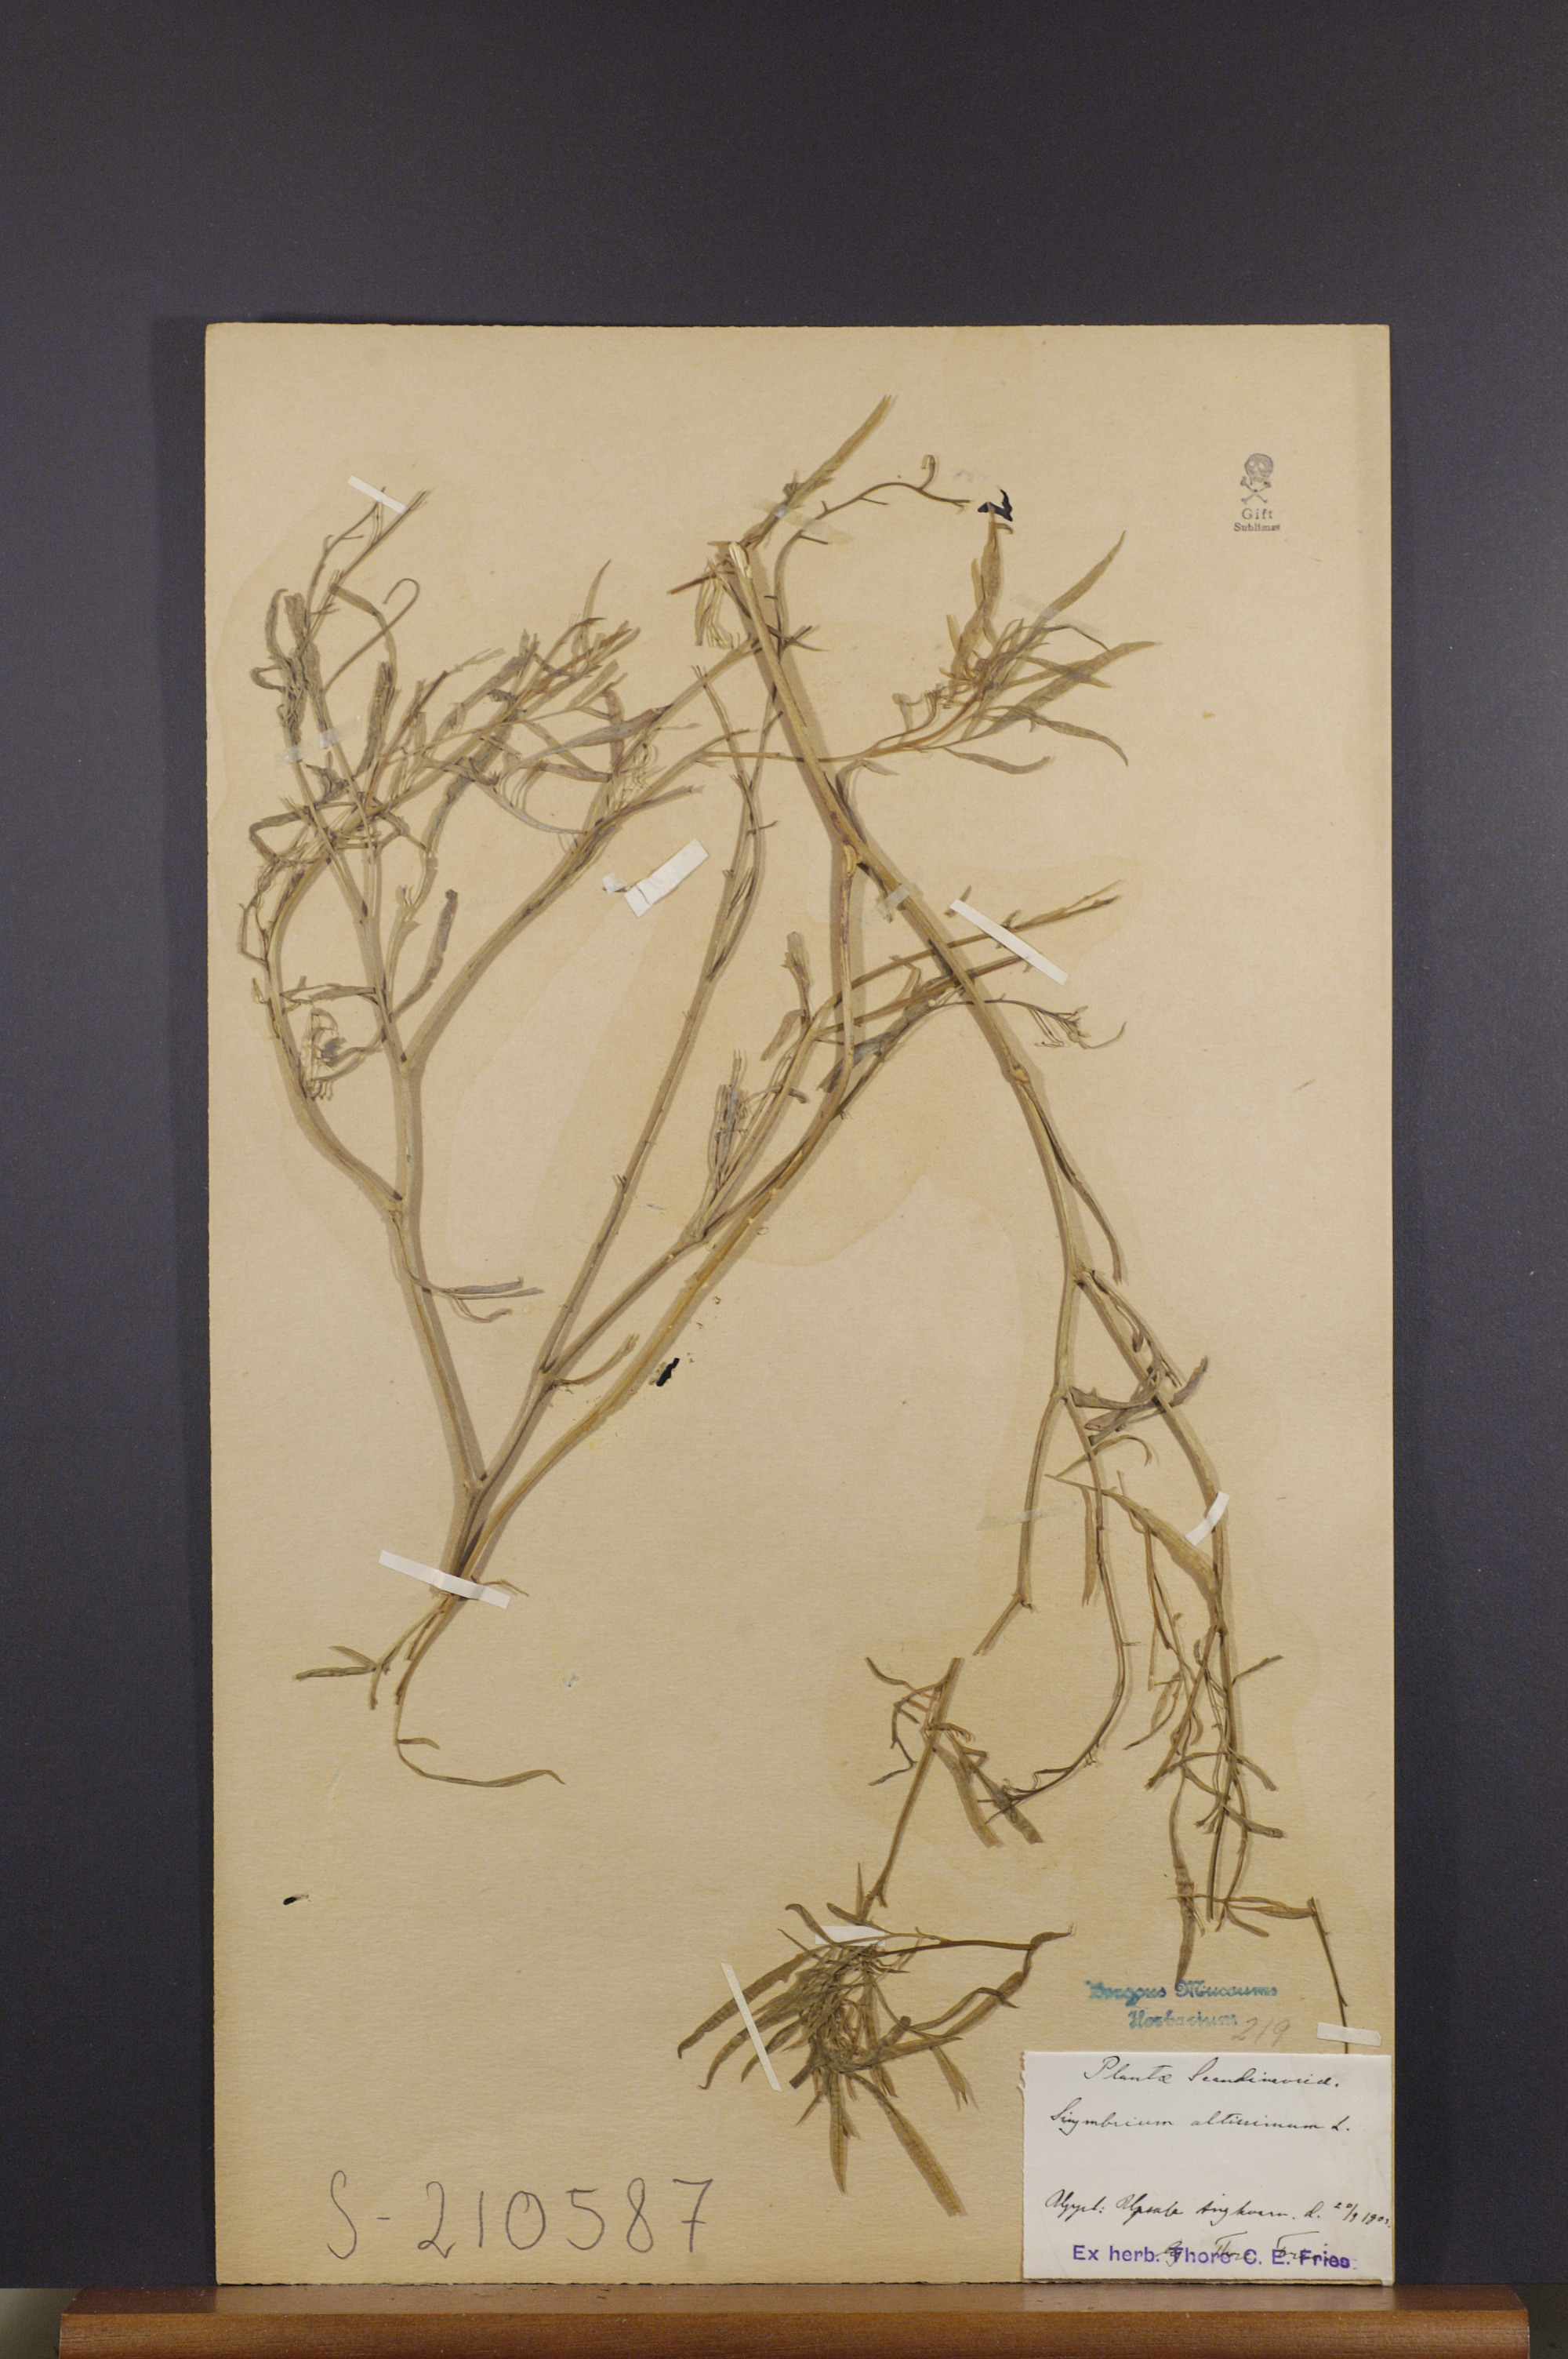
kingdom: Plantae
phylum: Tracheophyta
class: Magnoliopsida
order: Brassicales
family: Brassicaceae
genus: Sisymbrium
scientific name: Sisymbrium altissimum
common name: Tall rocket
